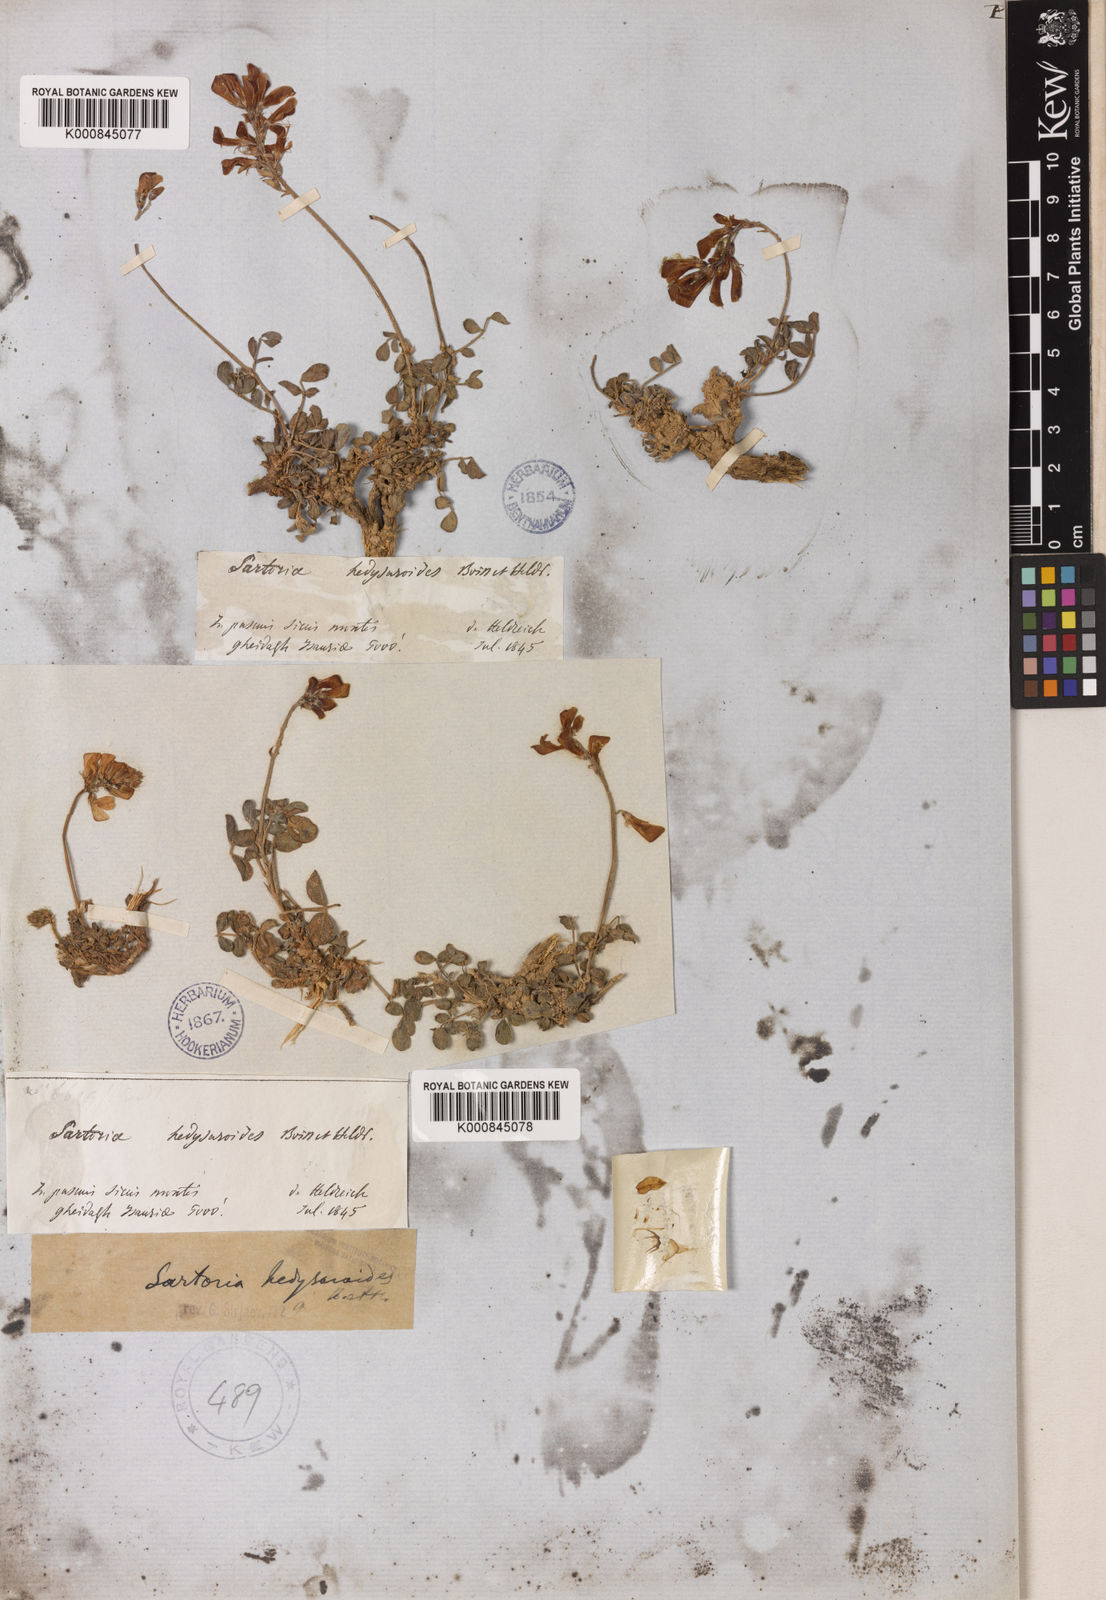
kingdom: Plantae
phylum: Tracheophyta
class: Magnoliopsida
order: Fabales
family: Fabaceae
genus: Hedysarum
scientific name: Hedysarum anatolicum
